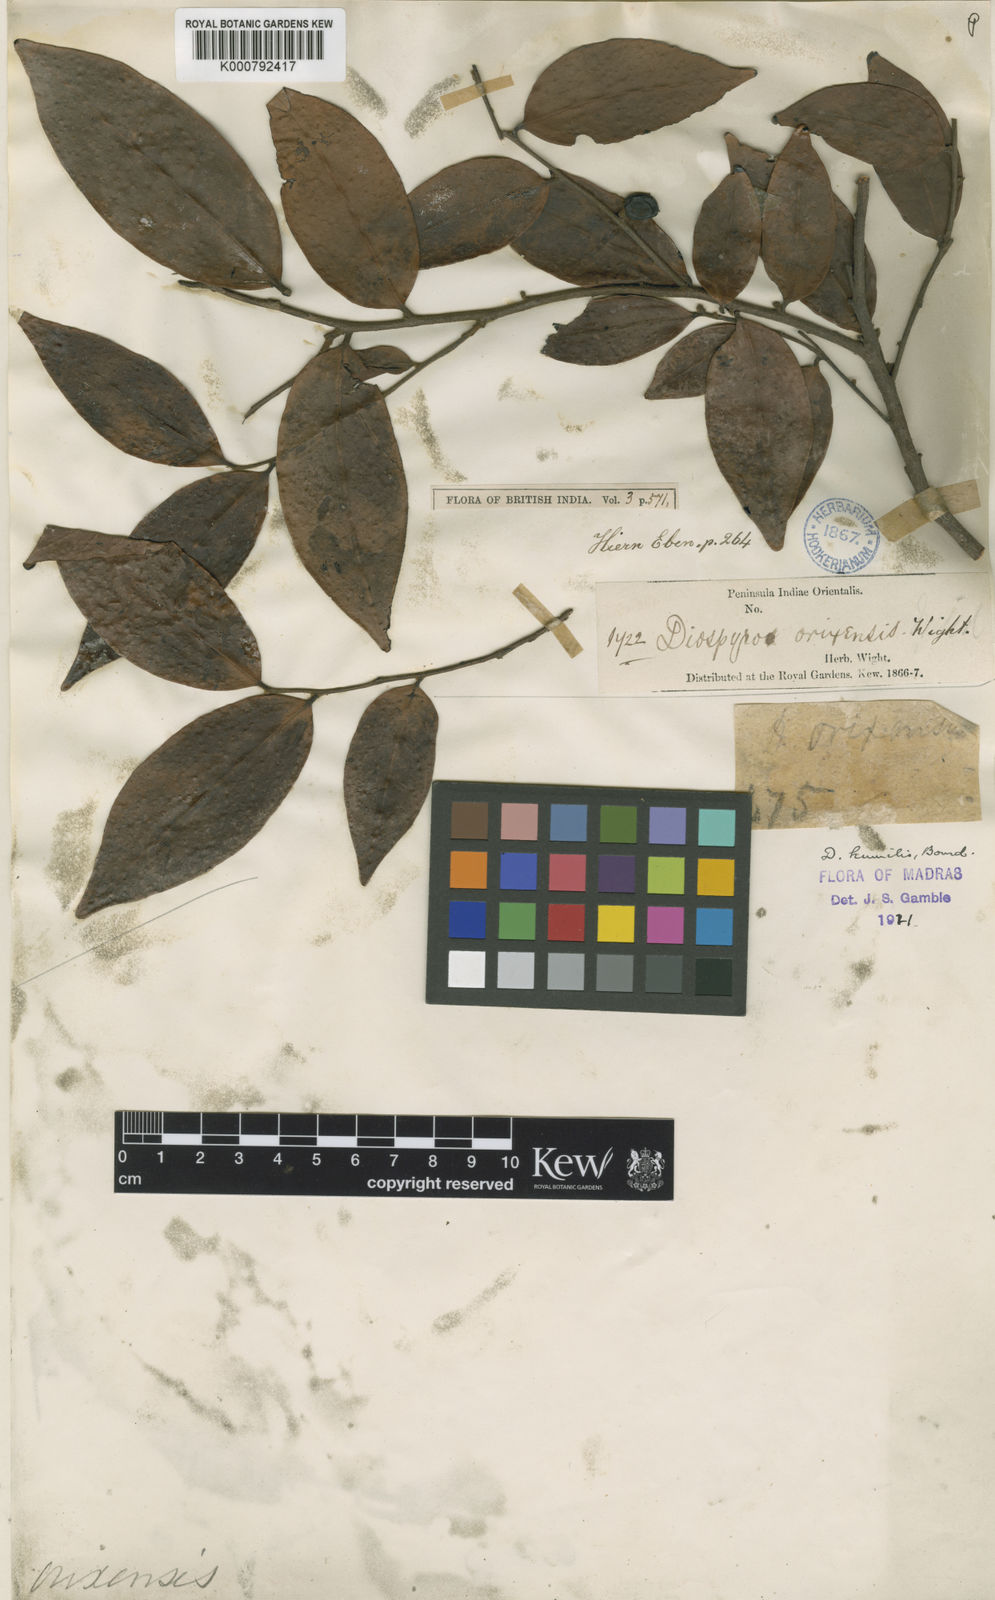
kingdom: Plantae
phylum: Tracheophyta
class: Magnoliopsida
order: Ericales
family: Ebenaceae
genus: Diospyros
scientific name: Diospyros montana
